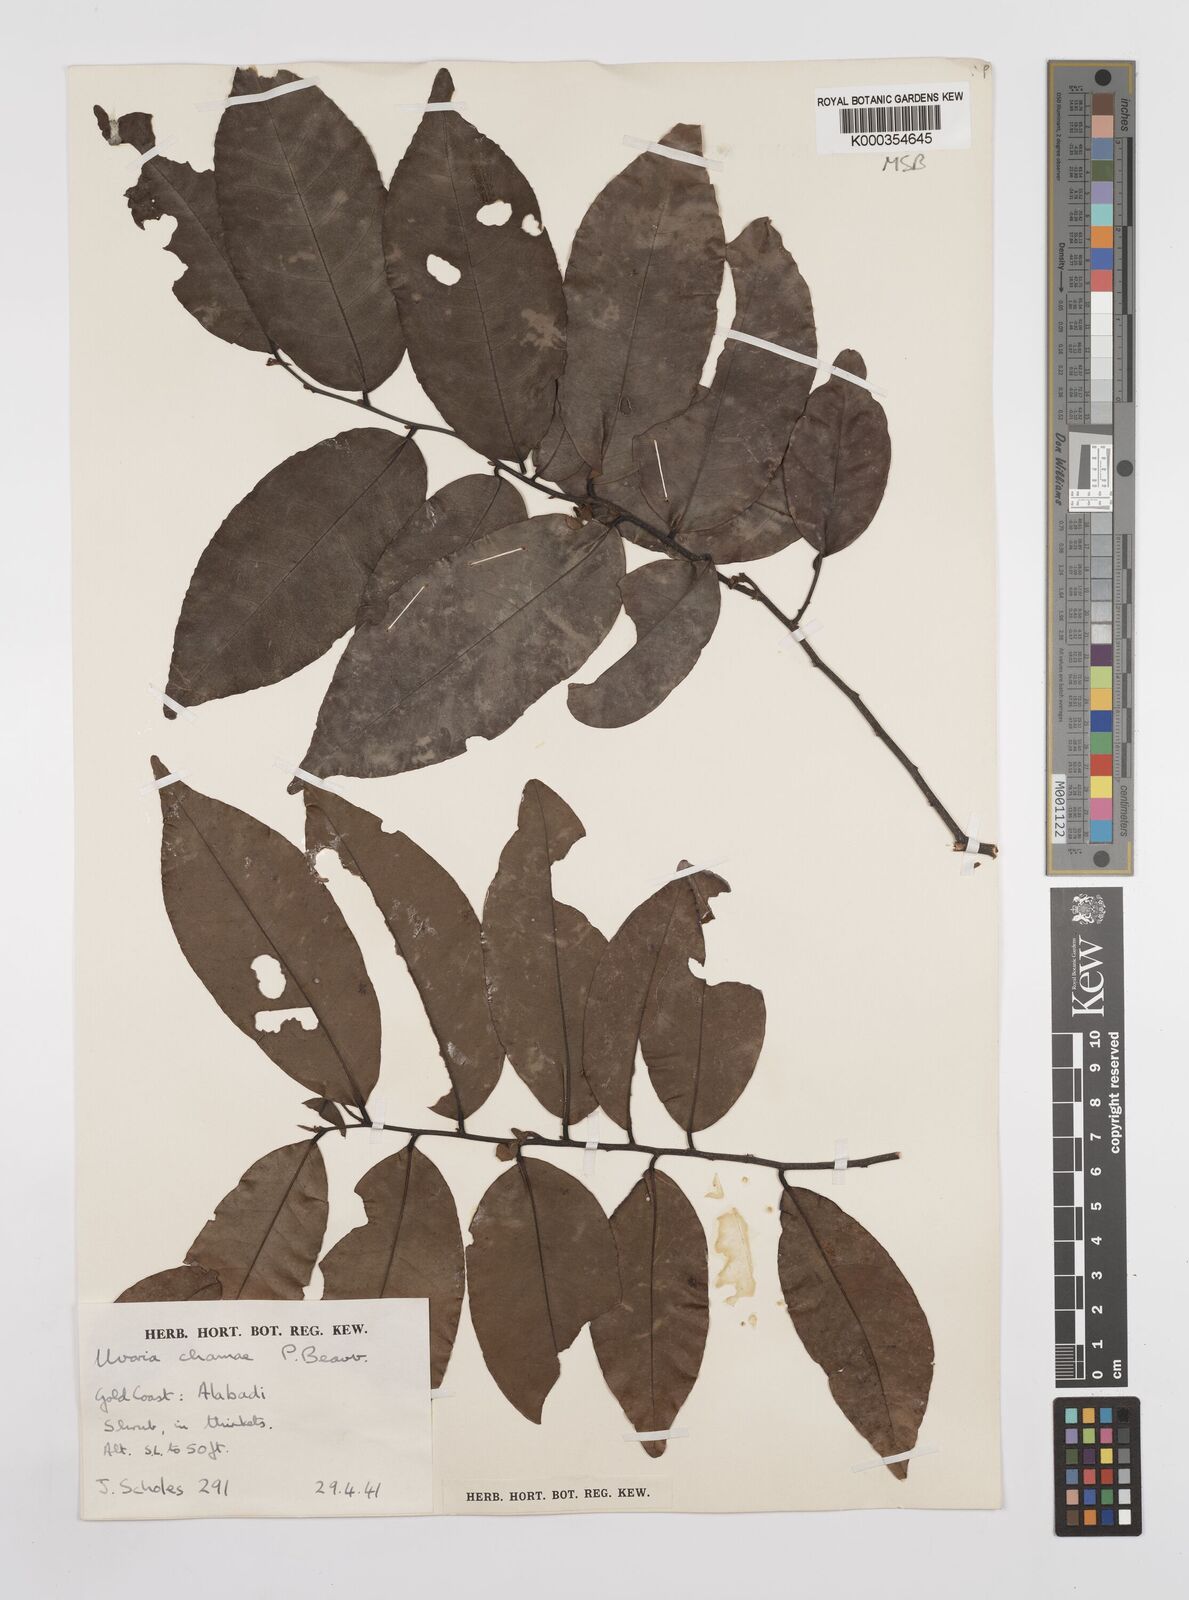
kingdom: Plantae
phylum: Tracheophyta
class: Magnoliopsida
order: Magnoliales
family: Annonaceae
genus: Uvaria
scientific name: Uvaria chamae
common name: Finger-root
